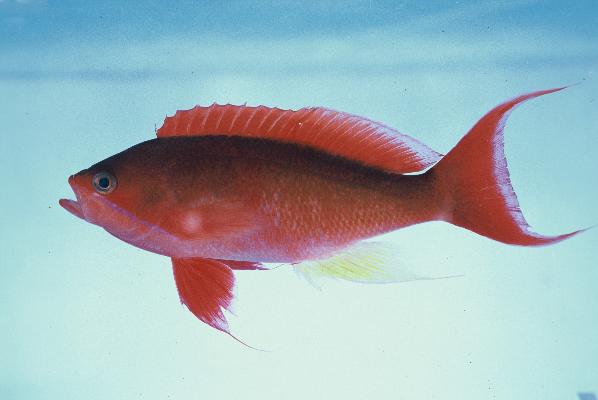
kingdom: Animalia
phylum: Chordata
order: Perciformes
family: Serranidae
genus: Pseudanthias
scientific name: Pseudanthias cooperi
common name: Red basslet
